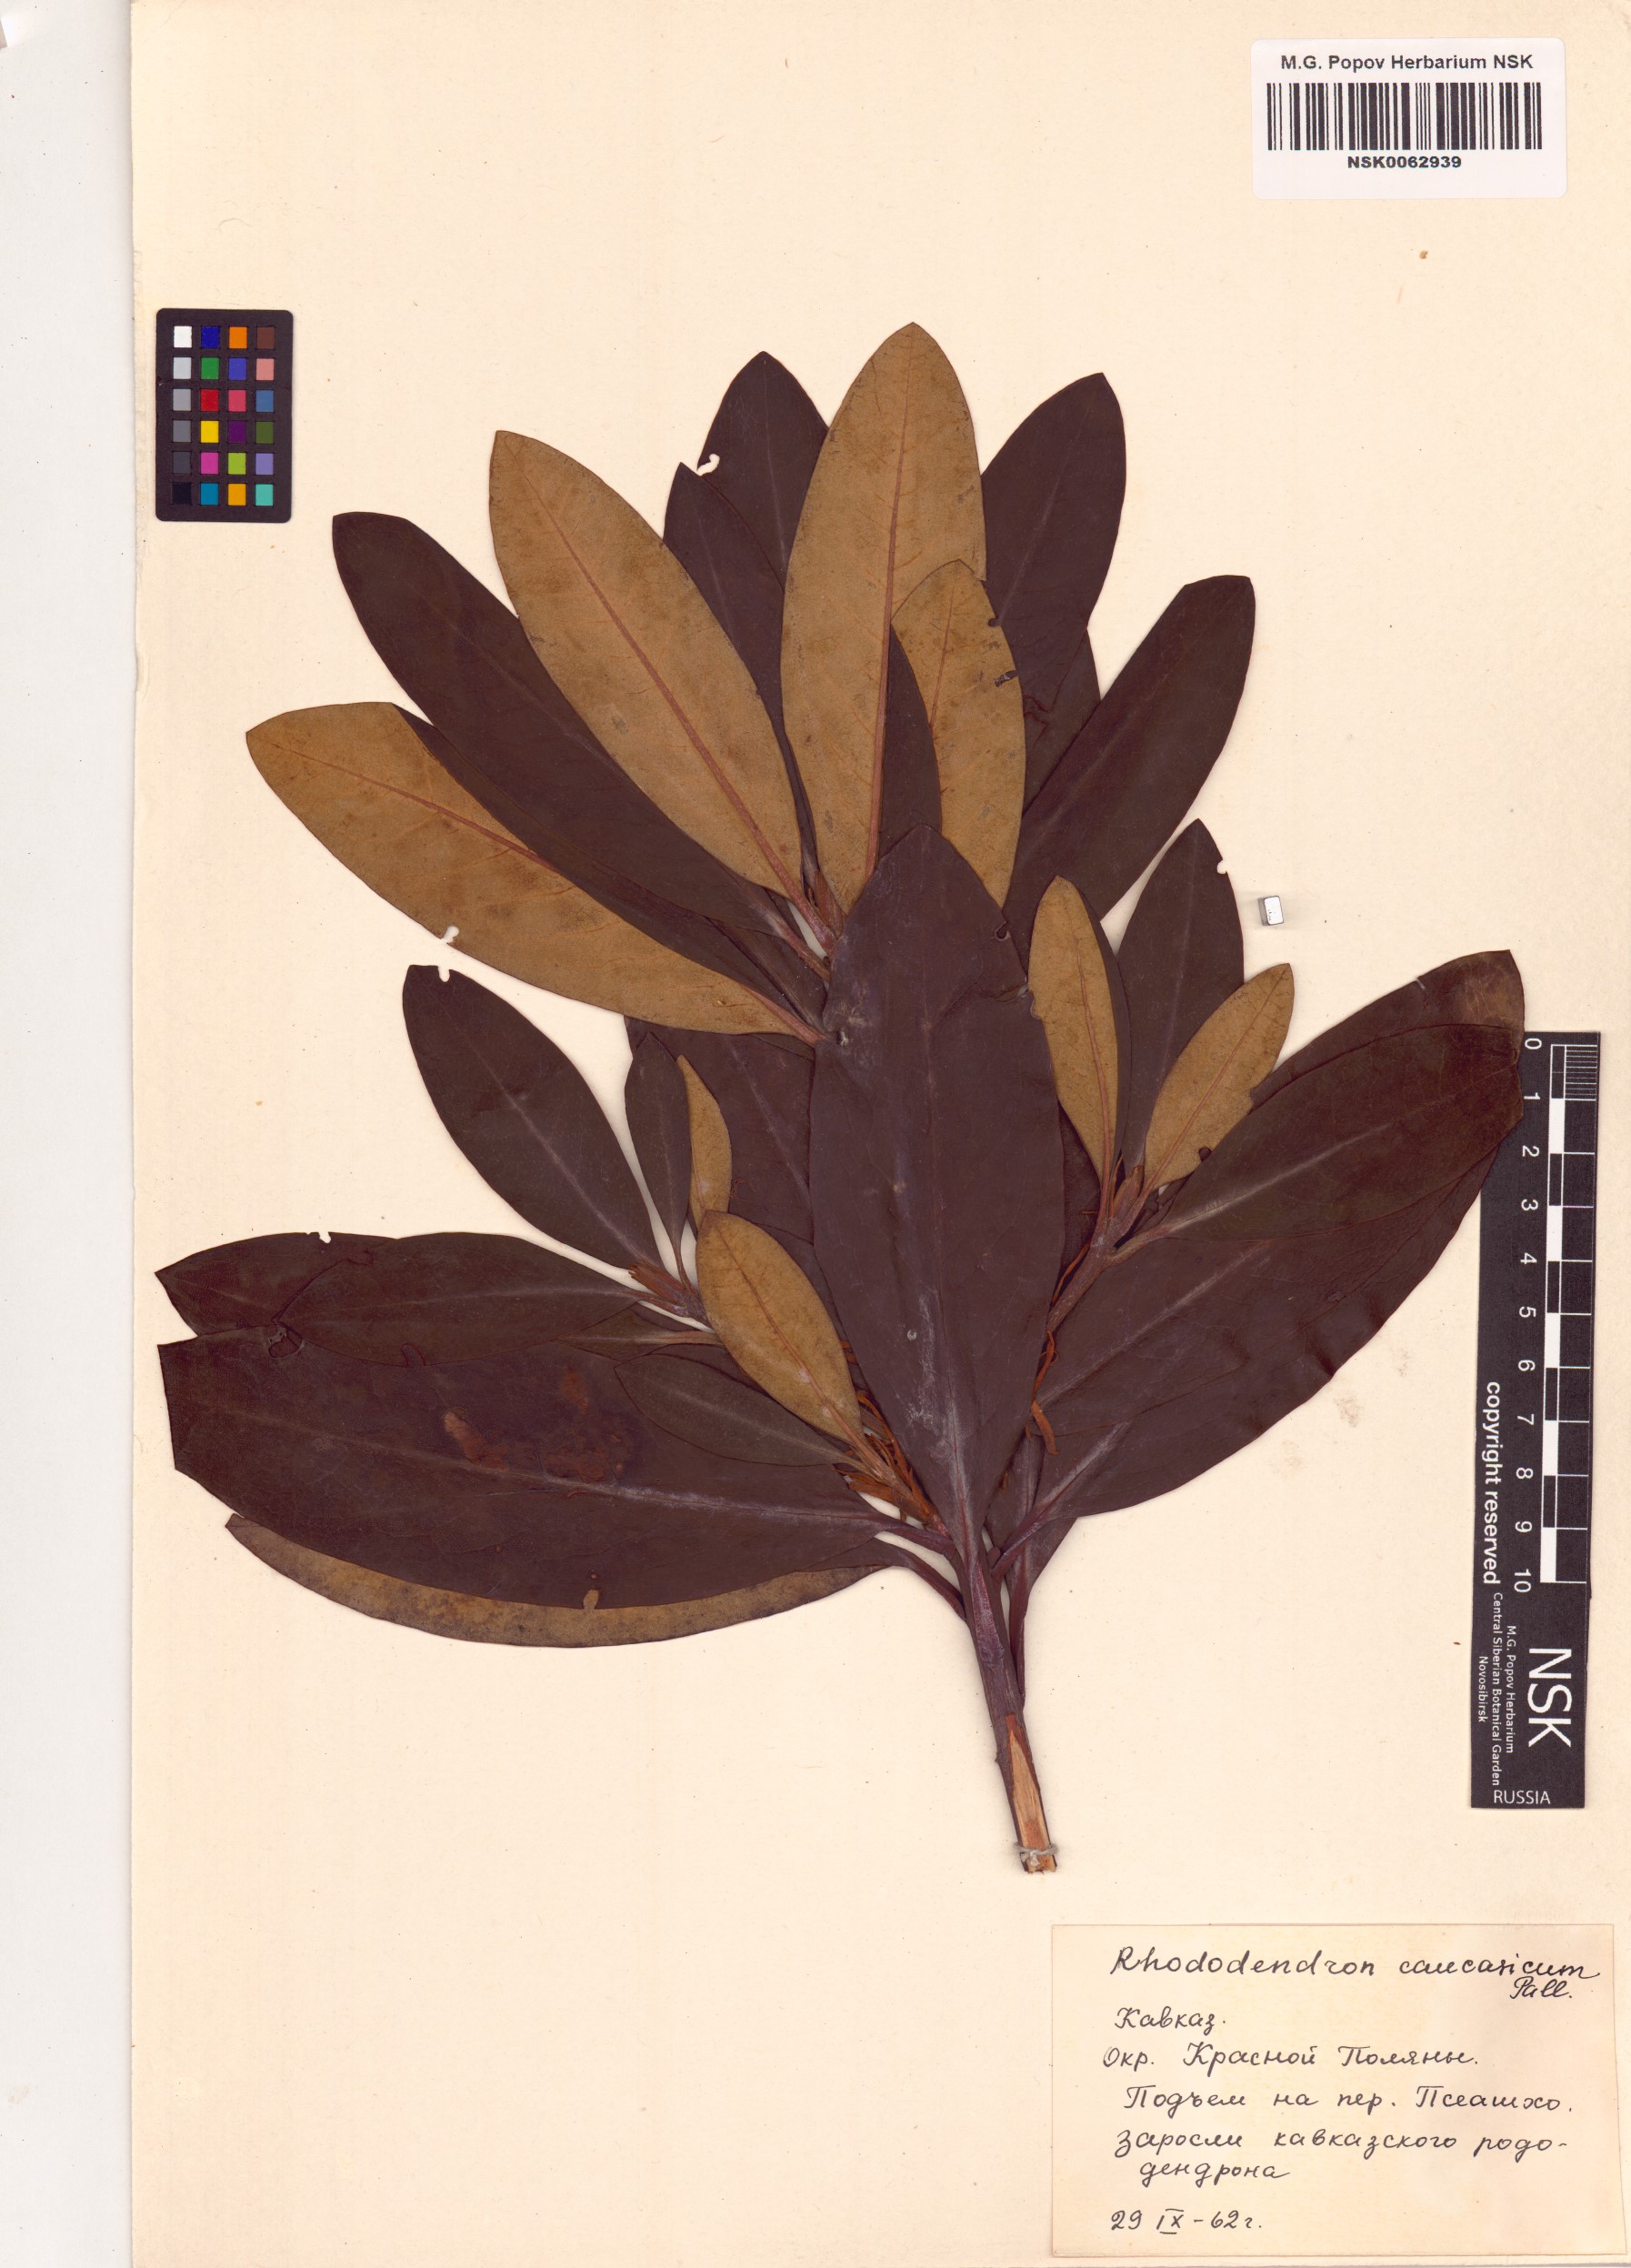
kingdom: Plantae
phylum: Tracheophyta
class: Magnoliopsida
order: Ericales
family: Ericaceae
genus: Rhododendron
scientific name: Rhododendron caucasicum
